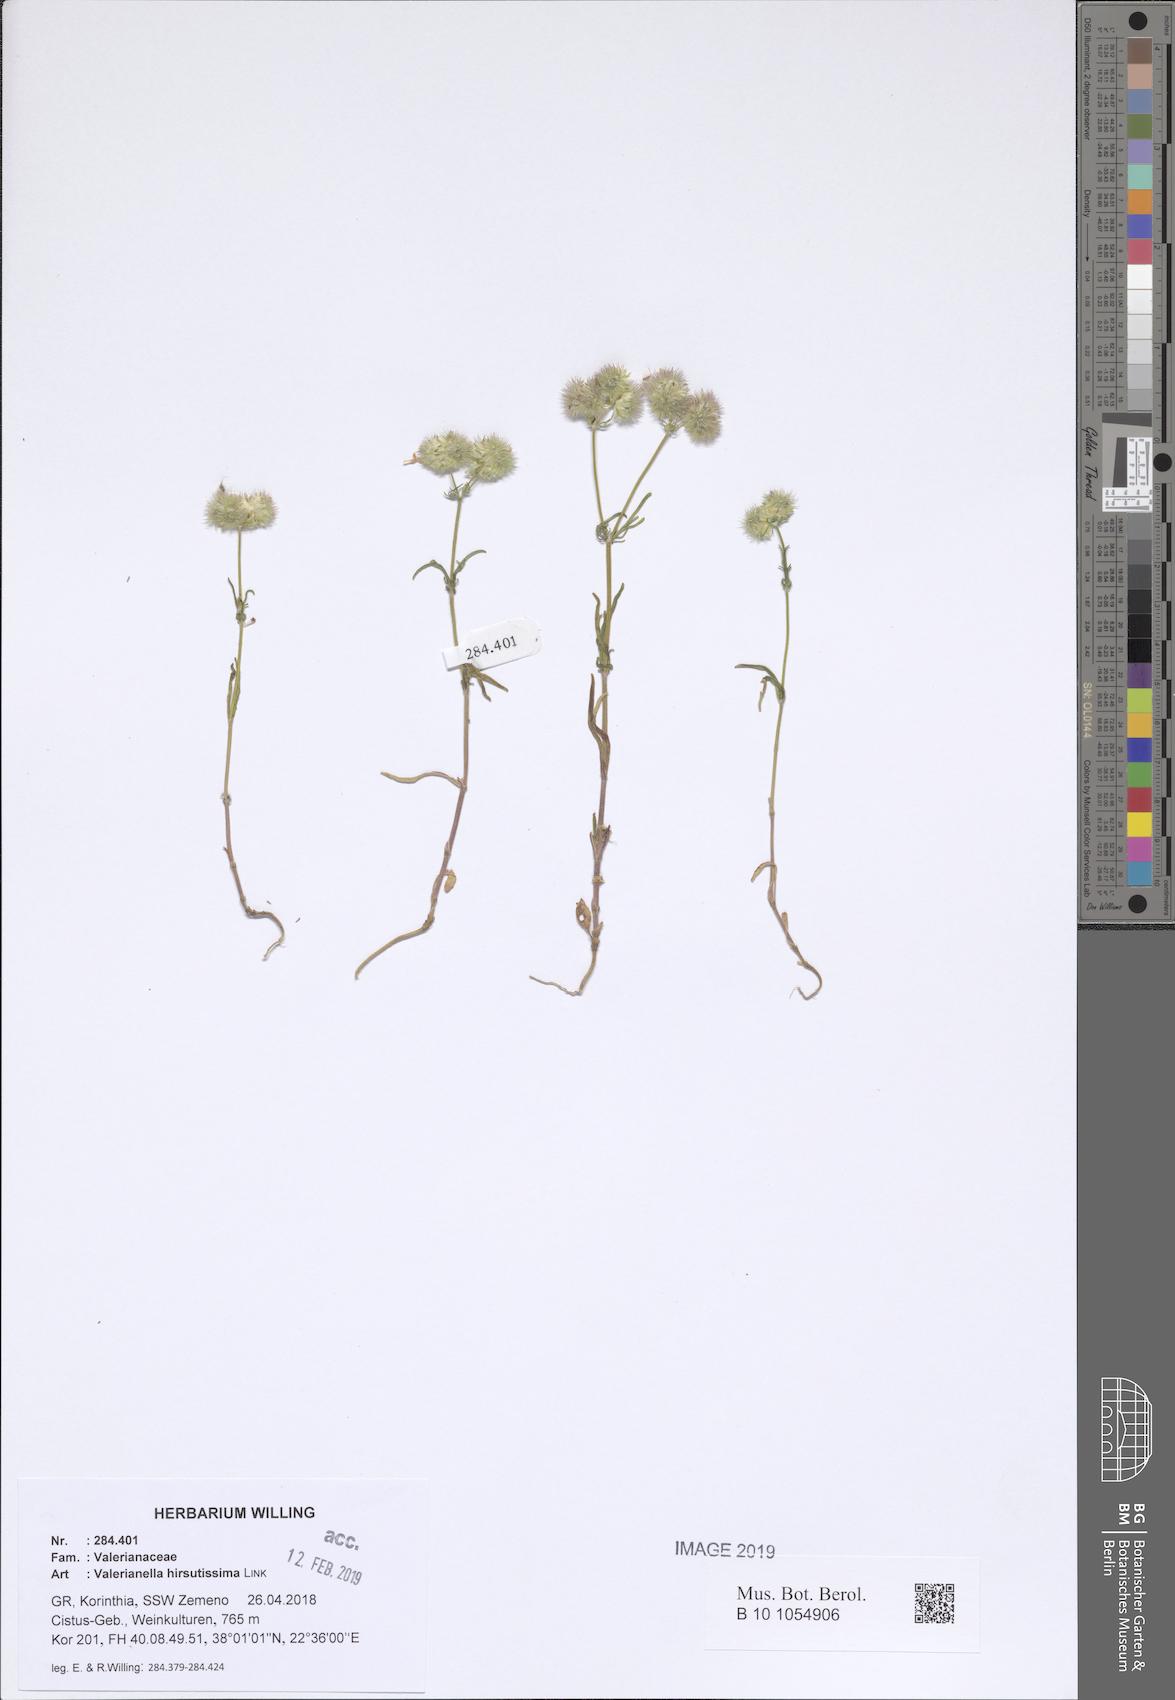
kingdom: Plantae
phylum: Tracheophyta
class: Magnoliopsida
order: Dipsacales
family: Caprifoliaceae
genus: Valerianella
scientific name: Valerianella hirsutissima
